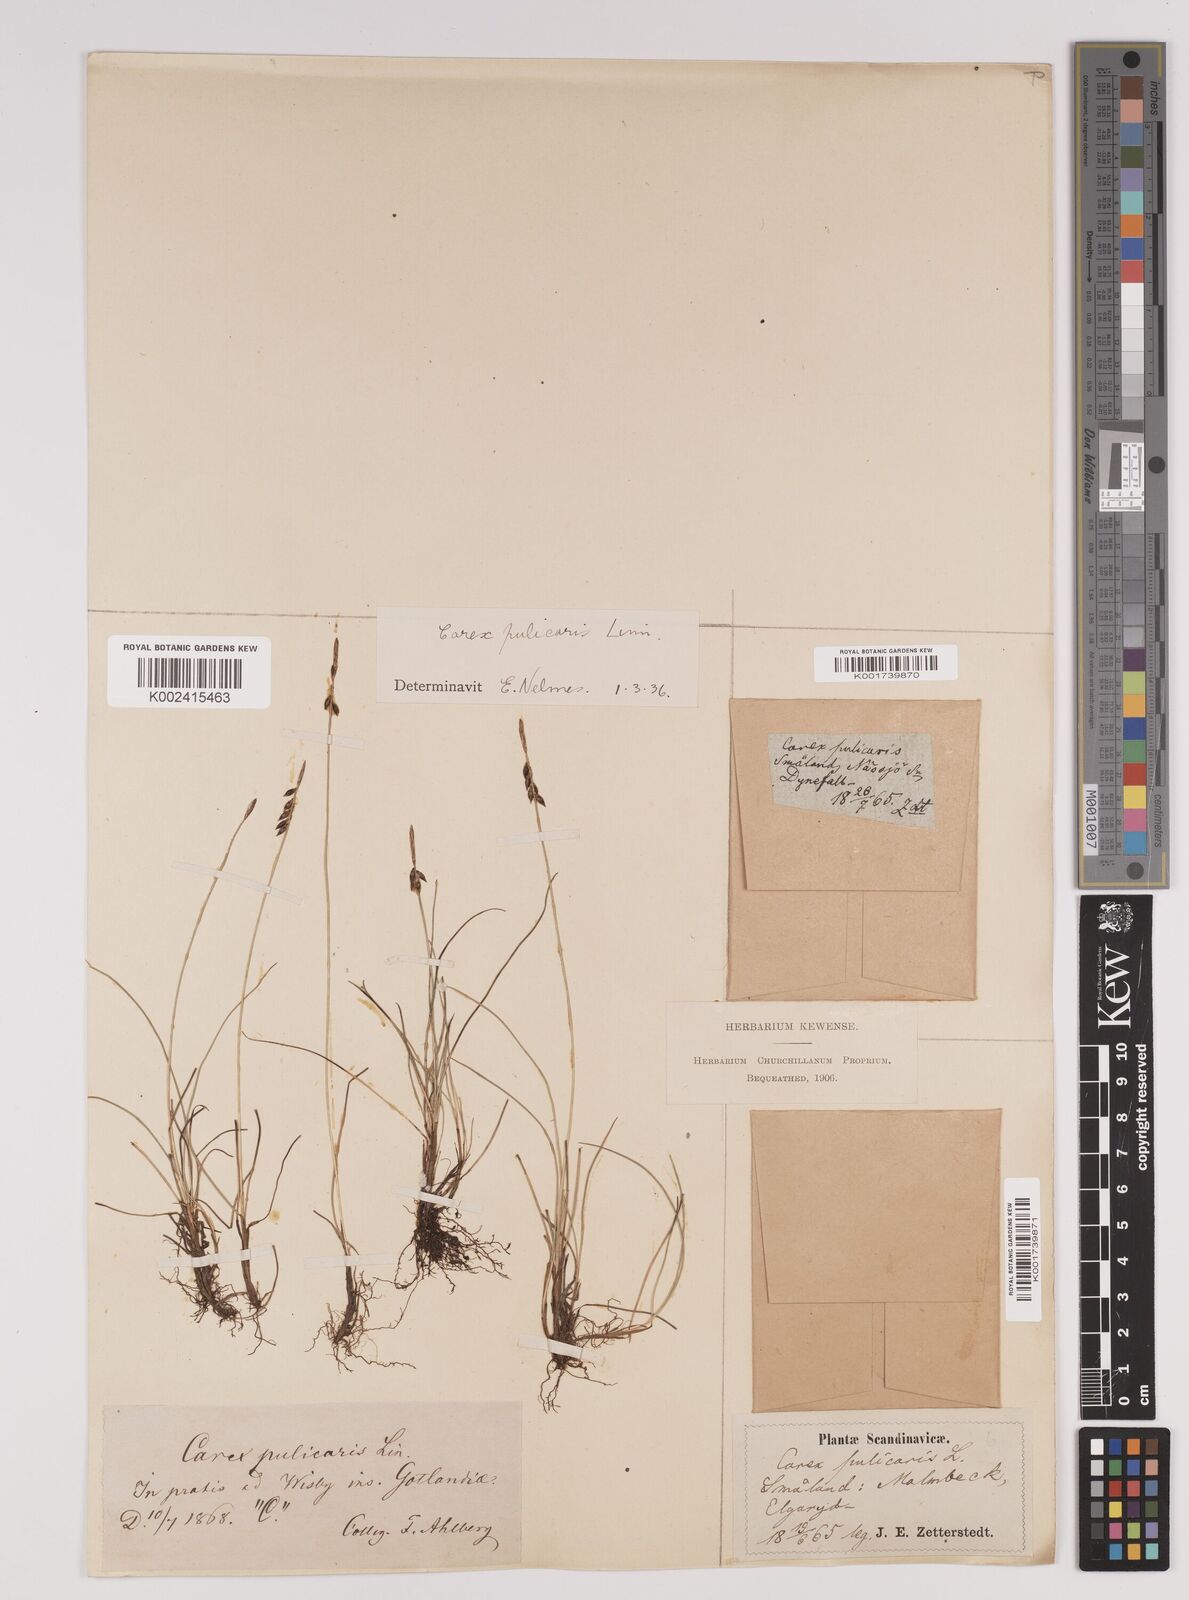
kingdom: Plantae
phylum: Tracheophyta
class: Liliopsida
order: Poales
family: Cyperaceae
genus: Carex
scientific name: Carex pulicaris
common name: Flea sedge
